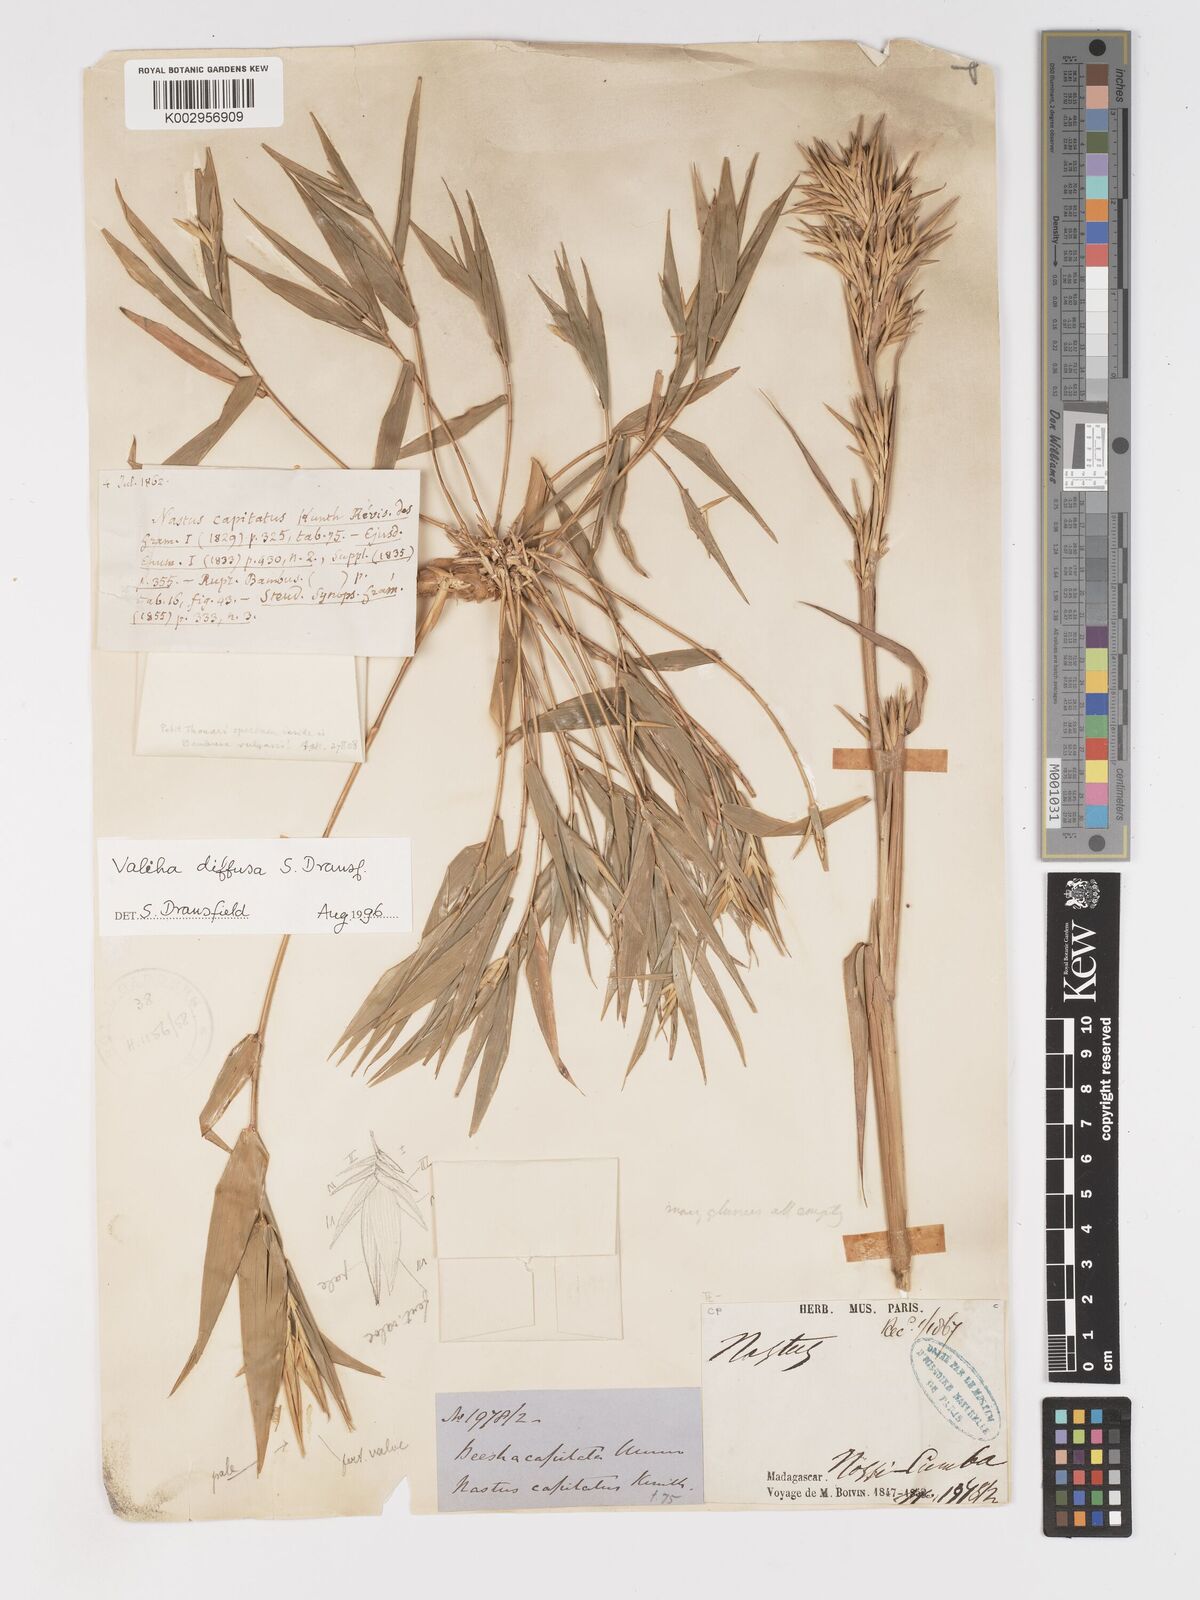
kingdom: Plantae
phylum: Tracheophyta
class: Liliopsida
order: Poales
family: Poaceae
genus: Valiha
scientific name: Valiha diffusa
